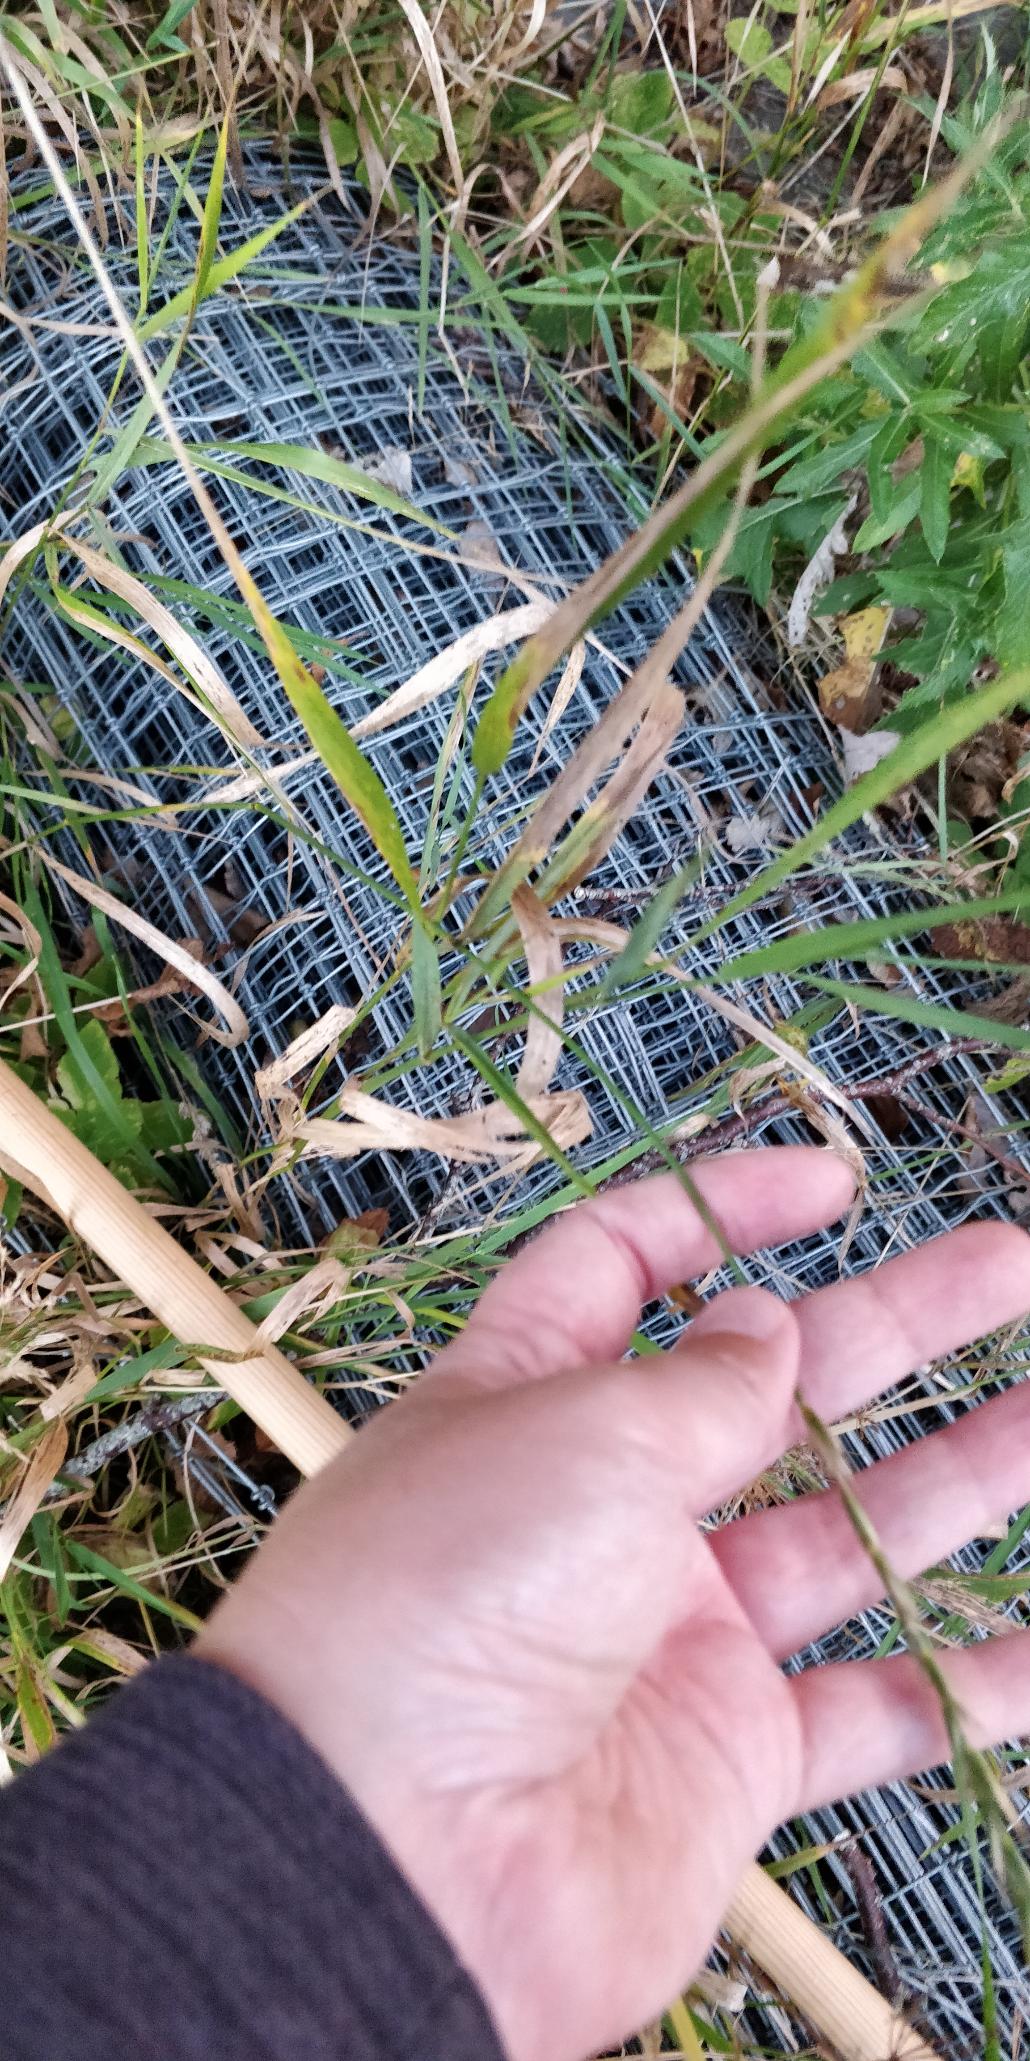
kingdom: Plantae
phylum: Tracheophyta
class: Liliopsida
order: Poales
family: Poaceae
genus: Elymus
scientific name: Elymus repens
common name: Almindelig kvik
